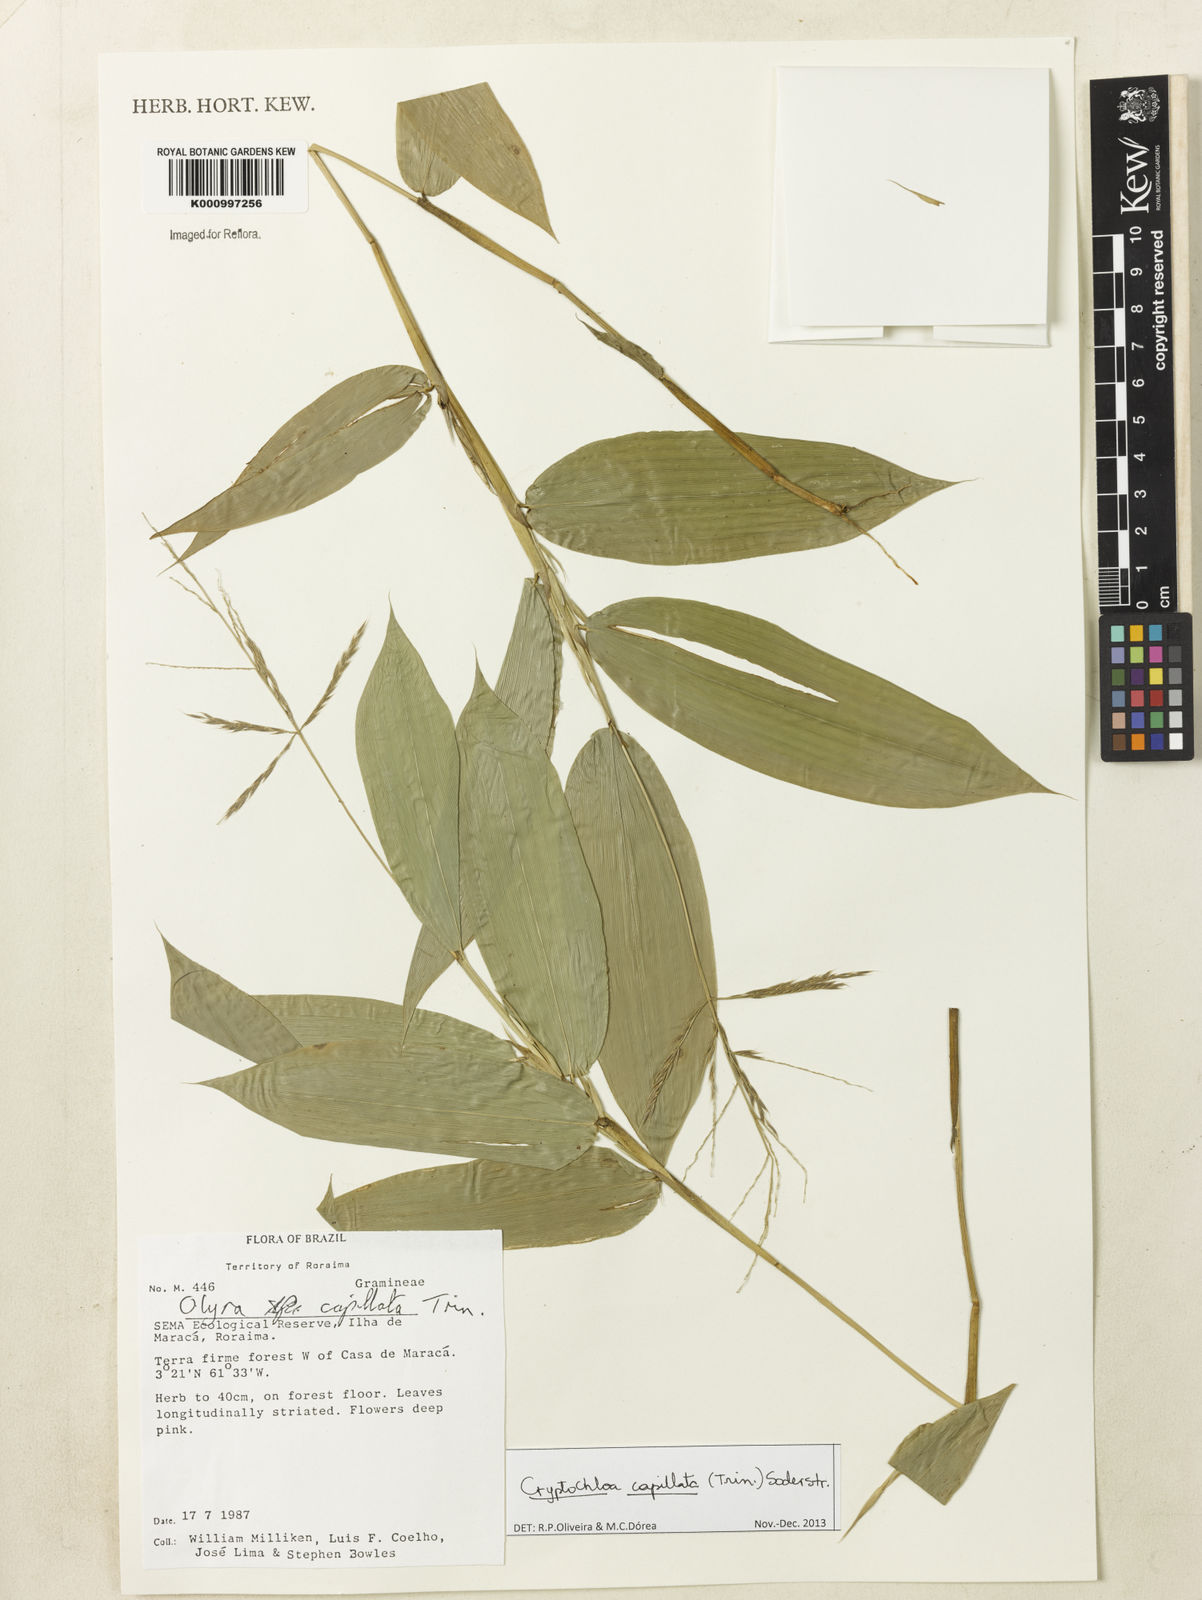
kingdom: Plantae
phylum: Tracheophyta
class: Liliopsida
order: Poales
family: Poaceae
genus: Cryptochloa
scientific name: Cryptochloa capillata
